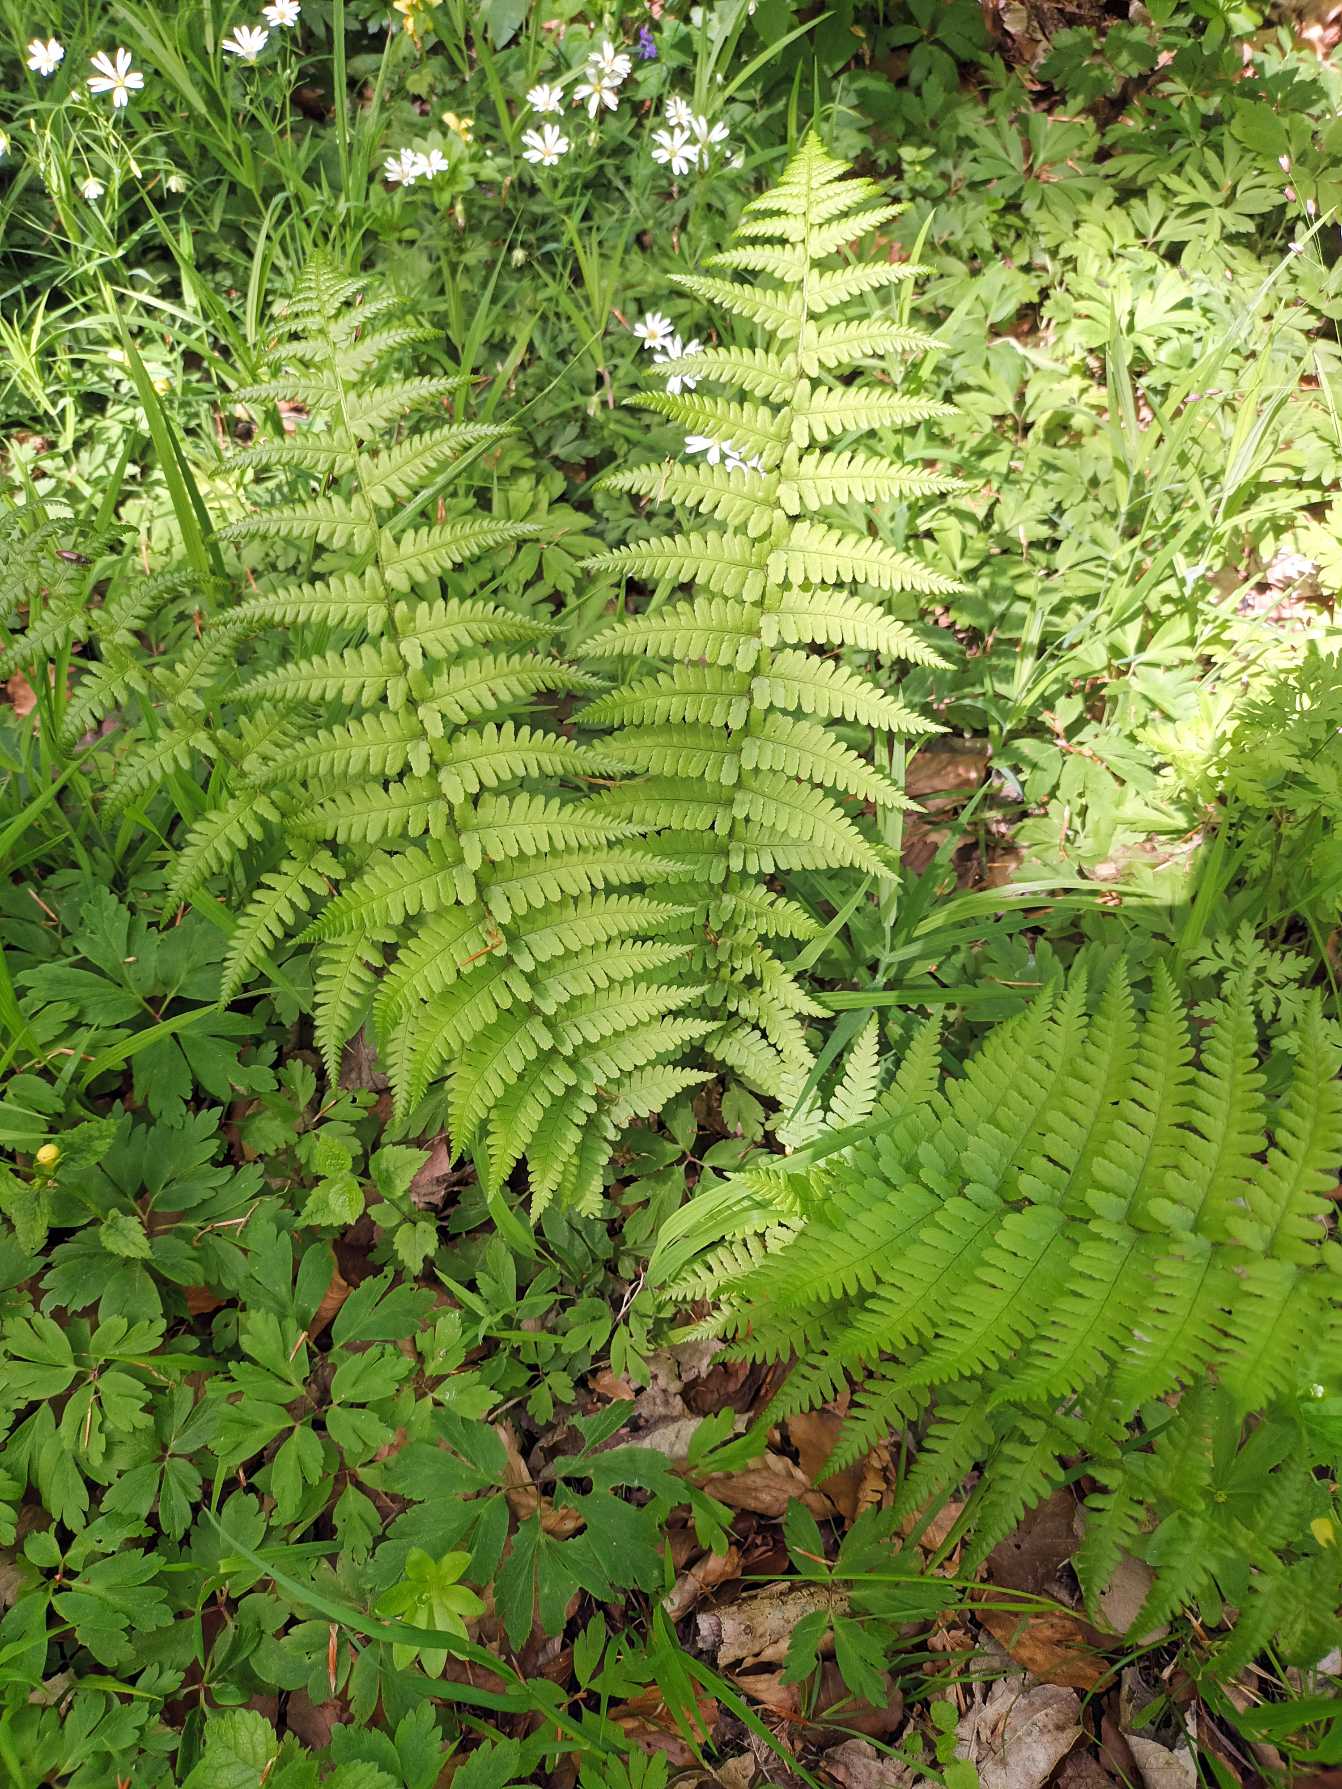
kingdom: Plantae
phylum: Tracheophyta
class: Polypodiopsida
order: Polypodiales
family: Dryopteridaceae
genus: Dryopteris
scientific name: Dryopteris filix-mas
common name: Almindelig mangeløv
